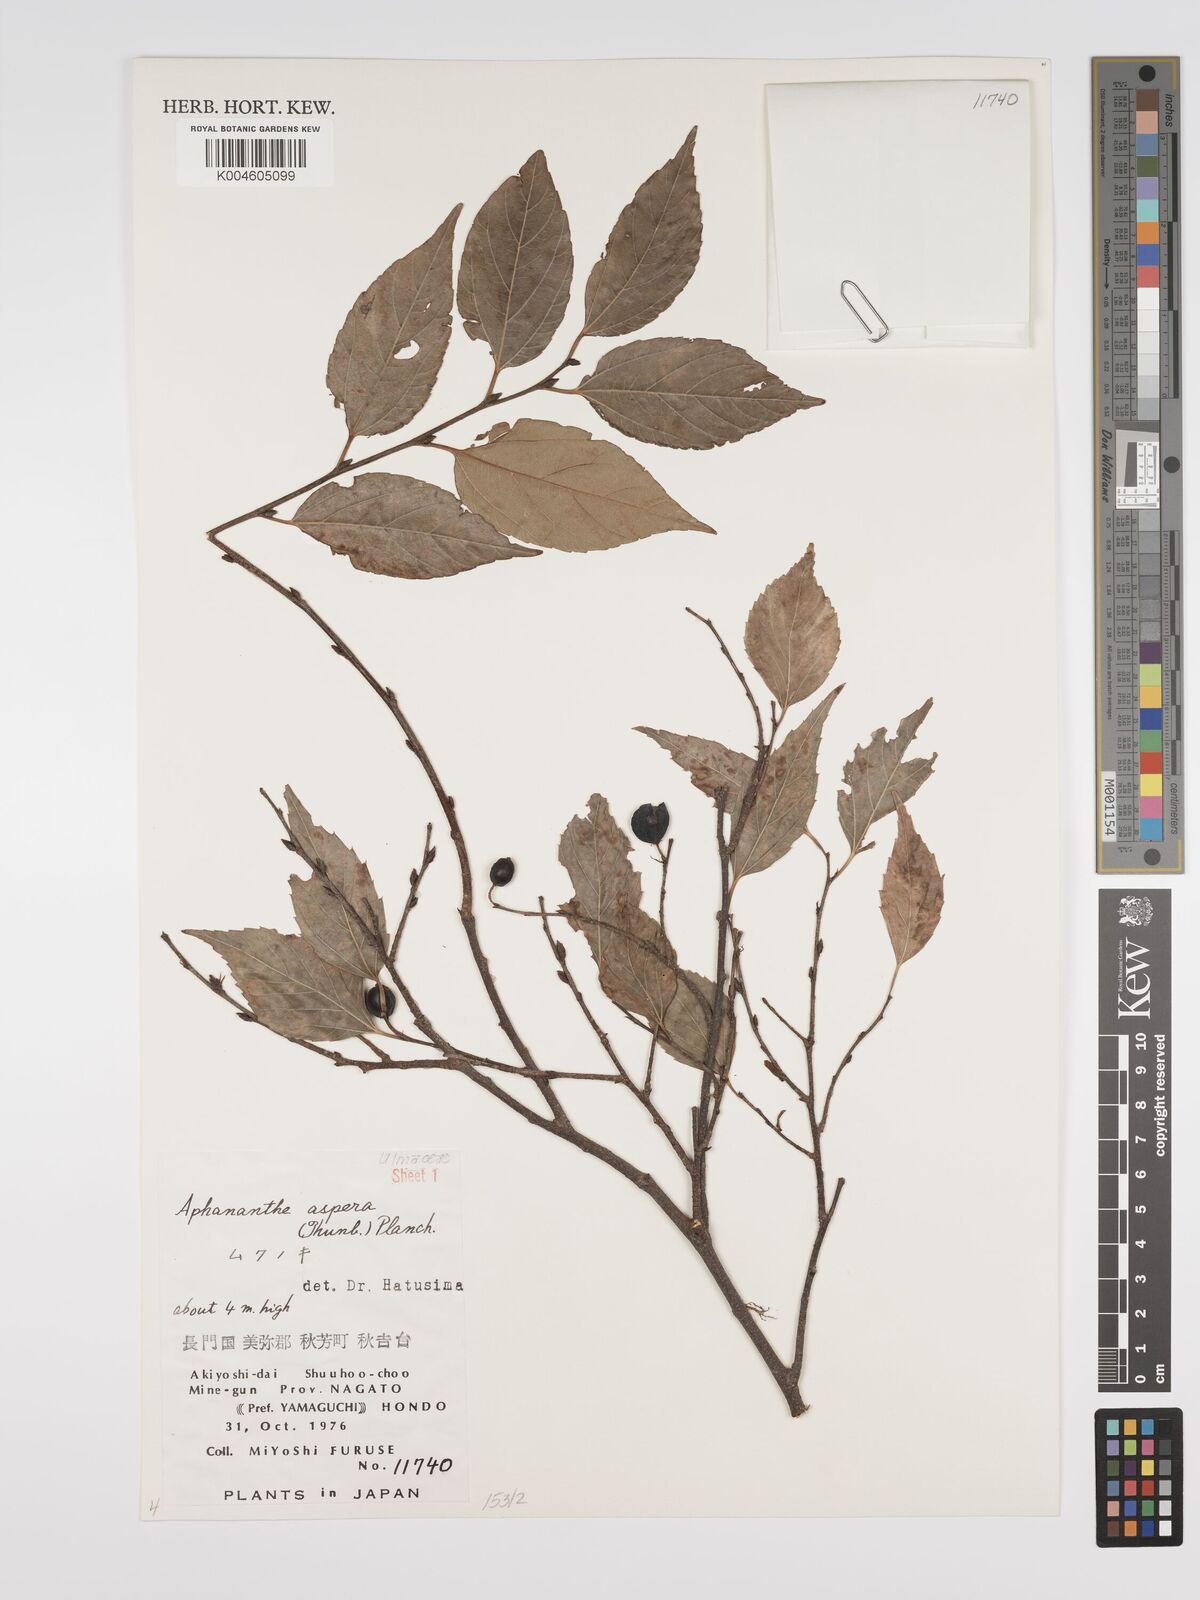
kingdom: Plantae
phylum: Tracheophyta
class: Magnoliopsida
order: Rosales
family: Cannabaceae
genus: Aphananthe
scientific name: Aphananthe aspera
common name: Mukutree
